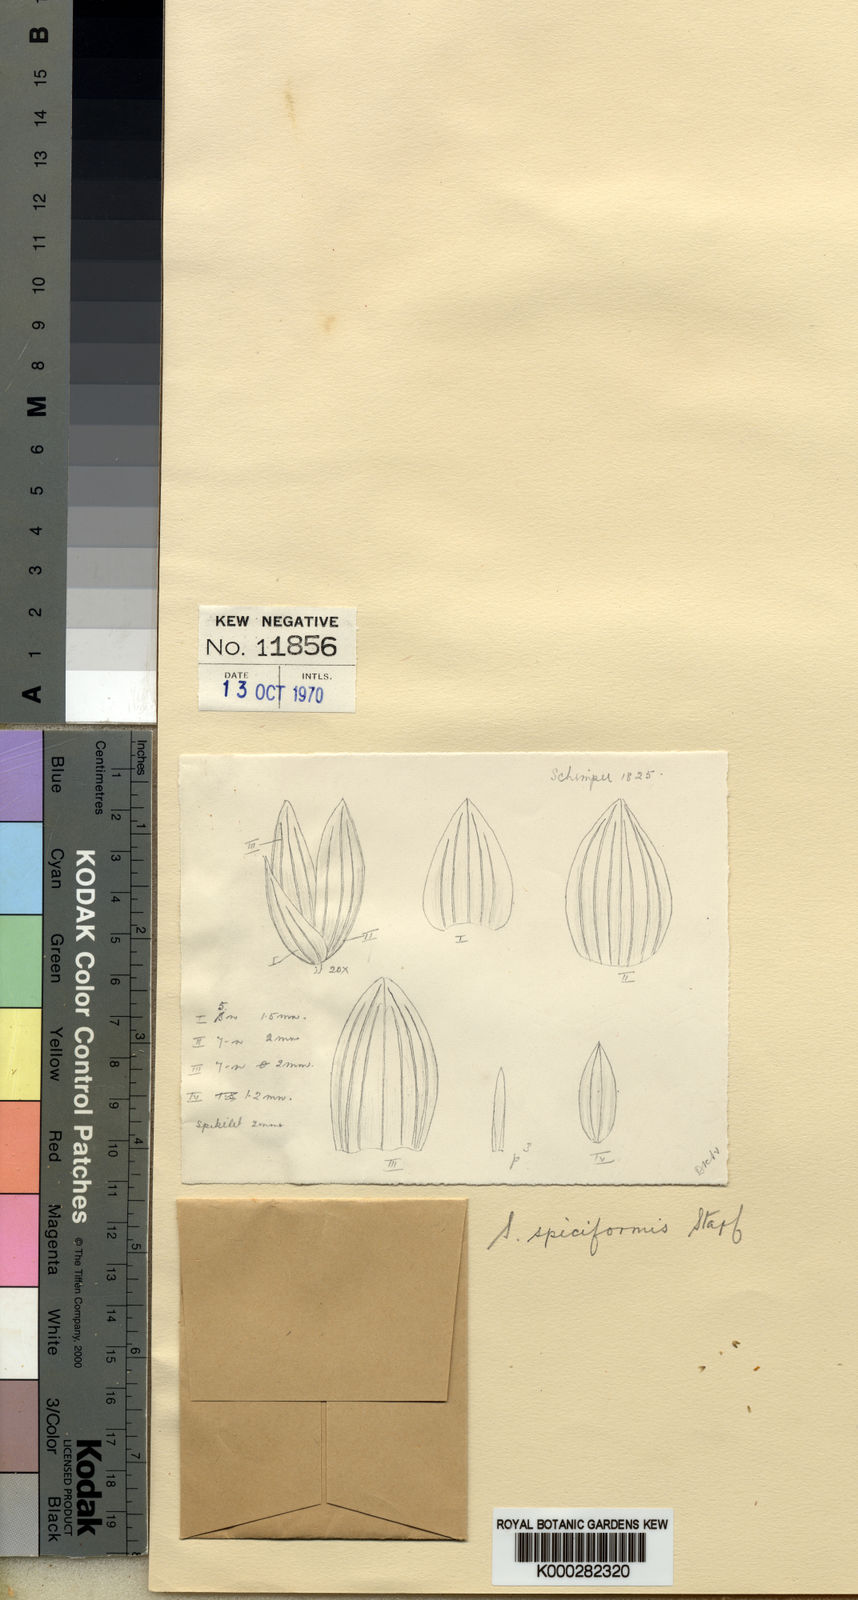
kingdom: Plantae
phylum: Tracheophyta
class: Liliopsida
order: Poales
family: Poaceae
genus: Sacciolepis
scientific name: Sacciolepis myosuroides
